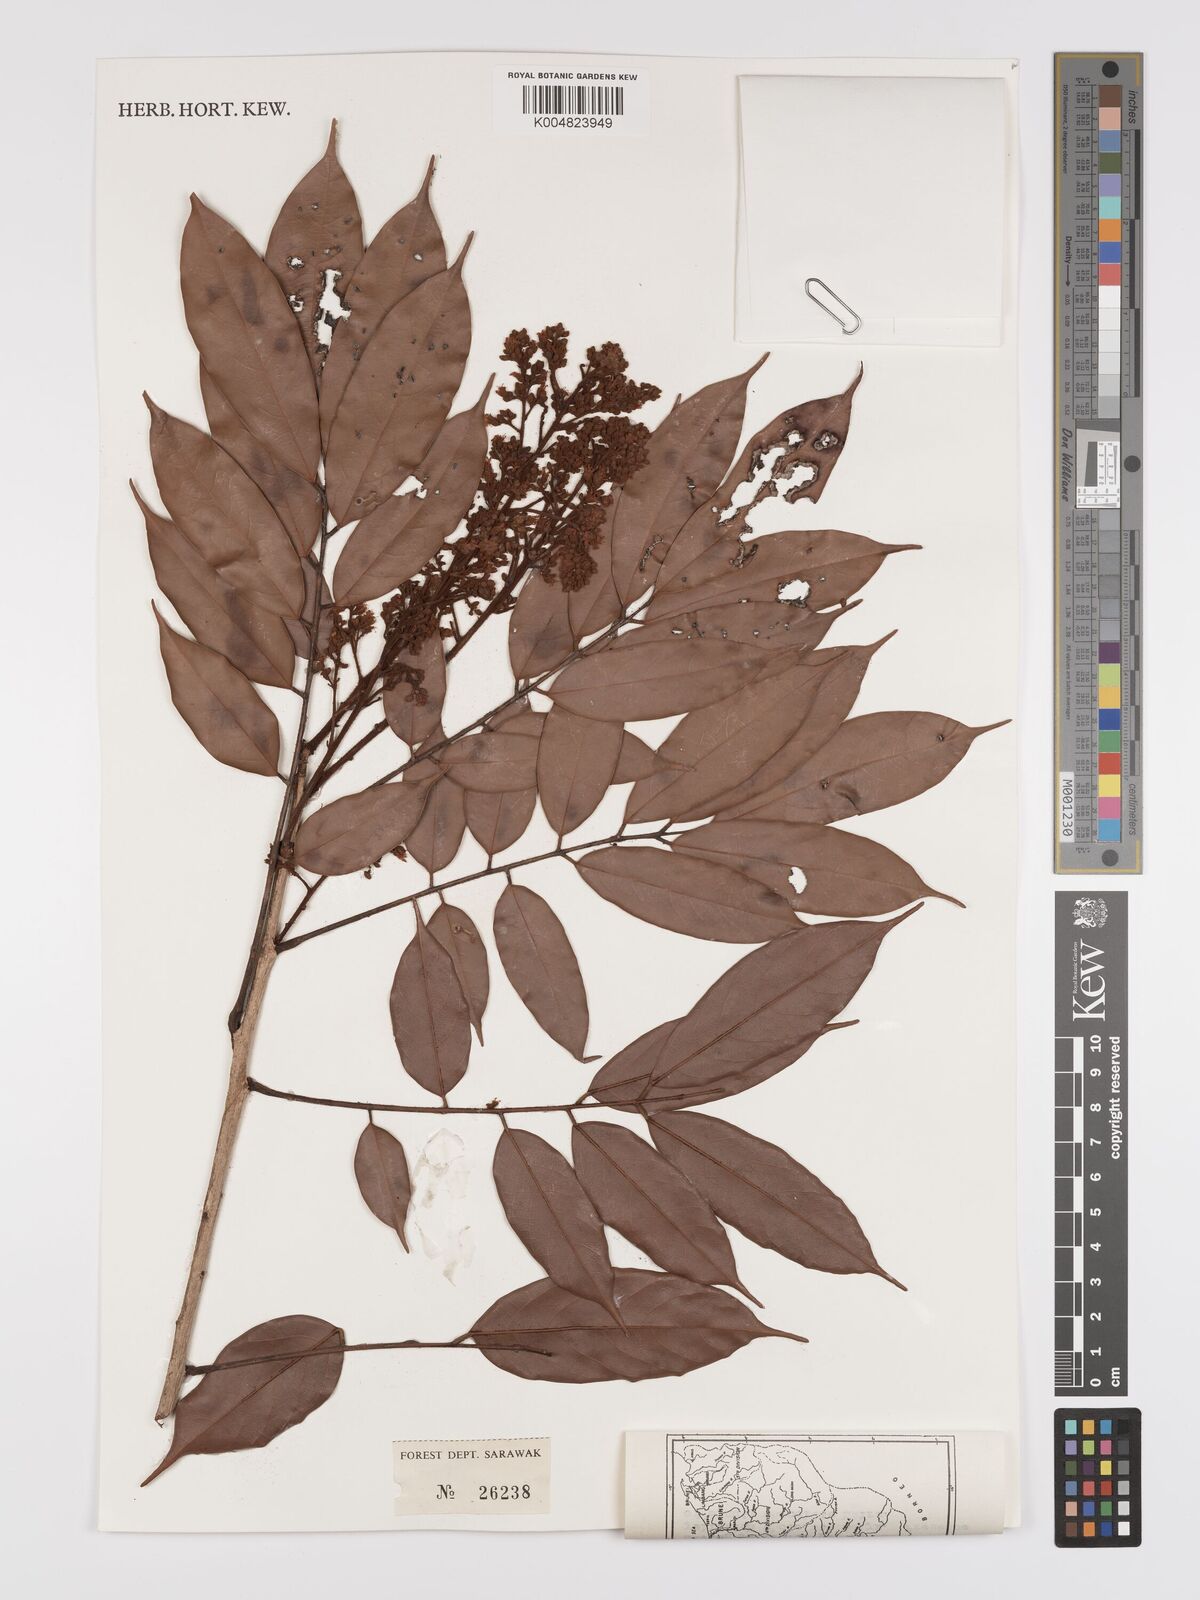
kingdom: Plantae
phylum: Tracheophyta
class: Magnoliopsida
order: Oxalidales
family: Connaraceae
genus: Connarus
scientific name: Connarus odoratus
